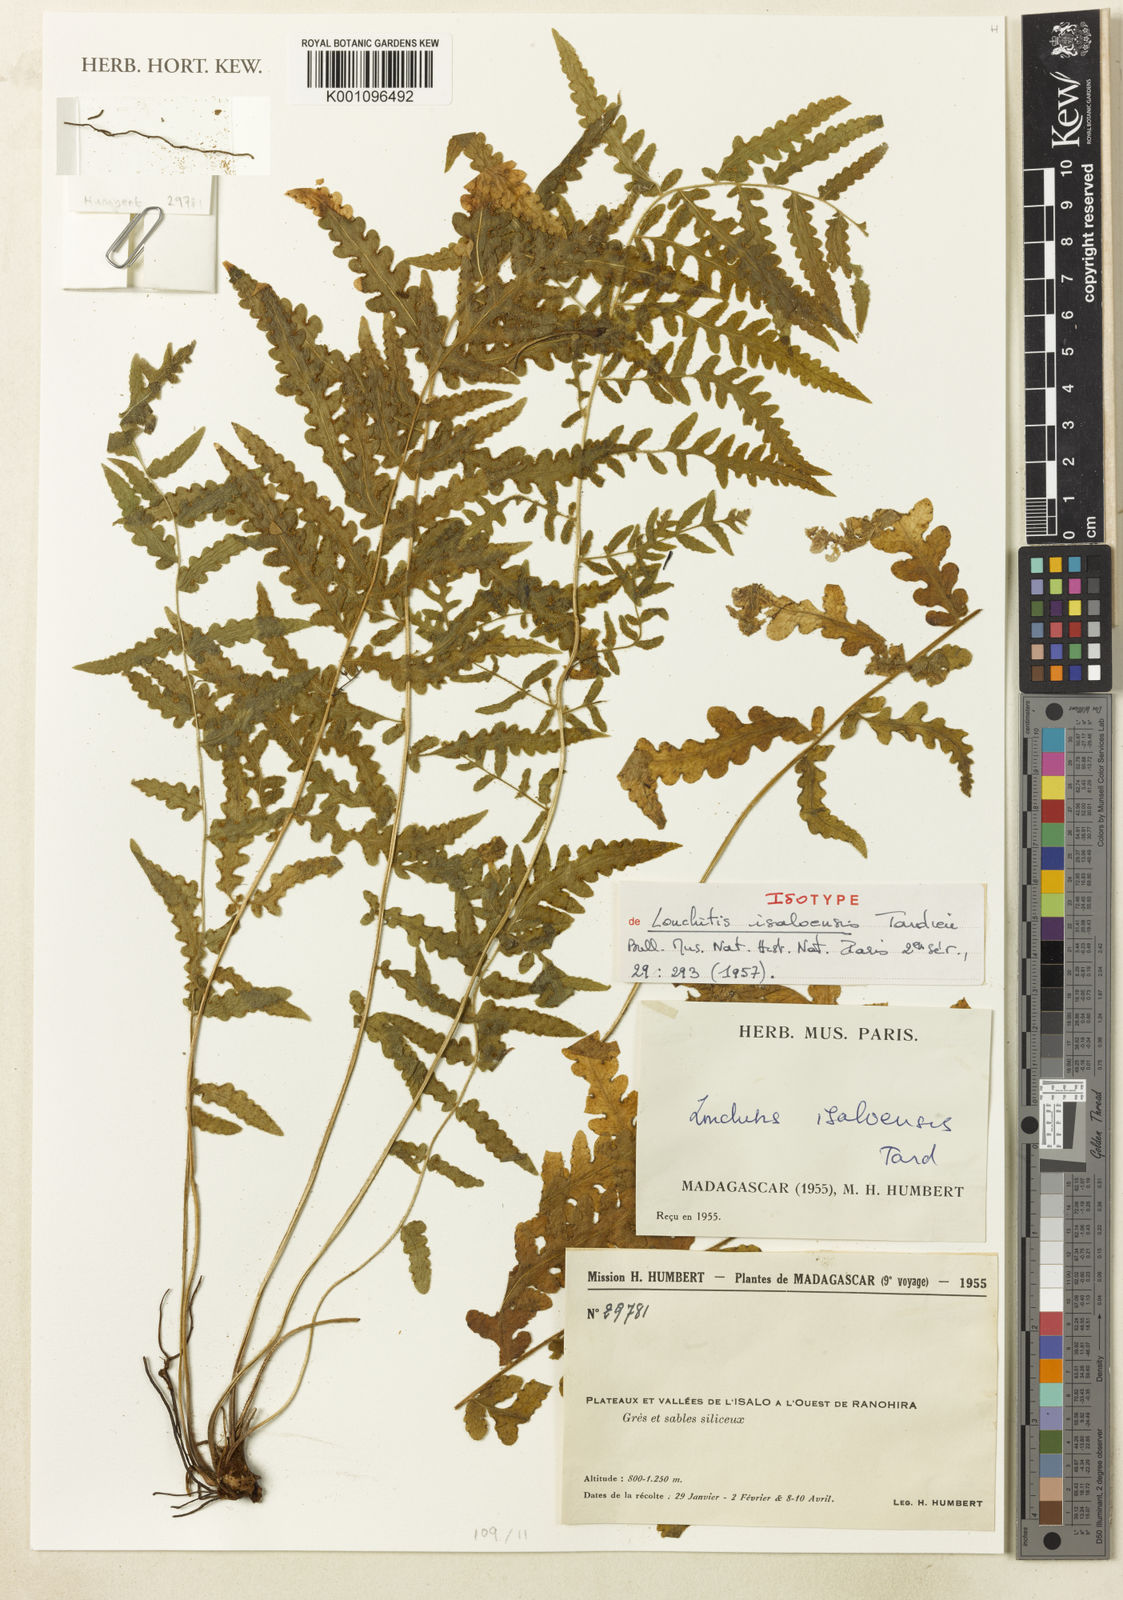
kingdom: Plantae
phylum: Tracheophyta
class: Polypodiopsida
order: Polypodiales
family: Dennstaedtiaceae
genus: Blotiella
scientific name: Blotiella isaloensis
